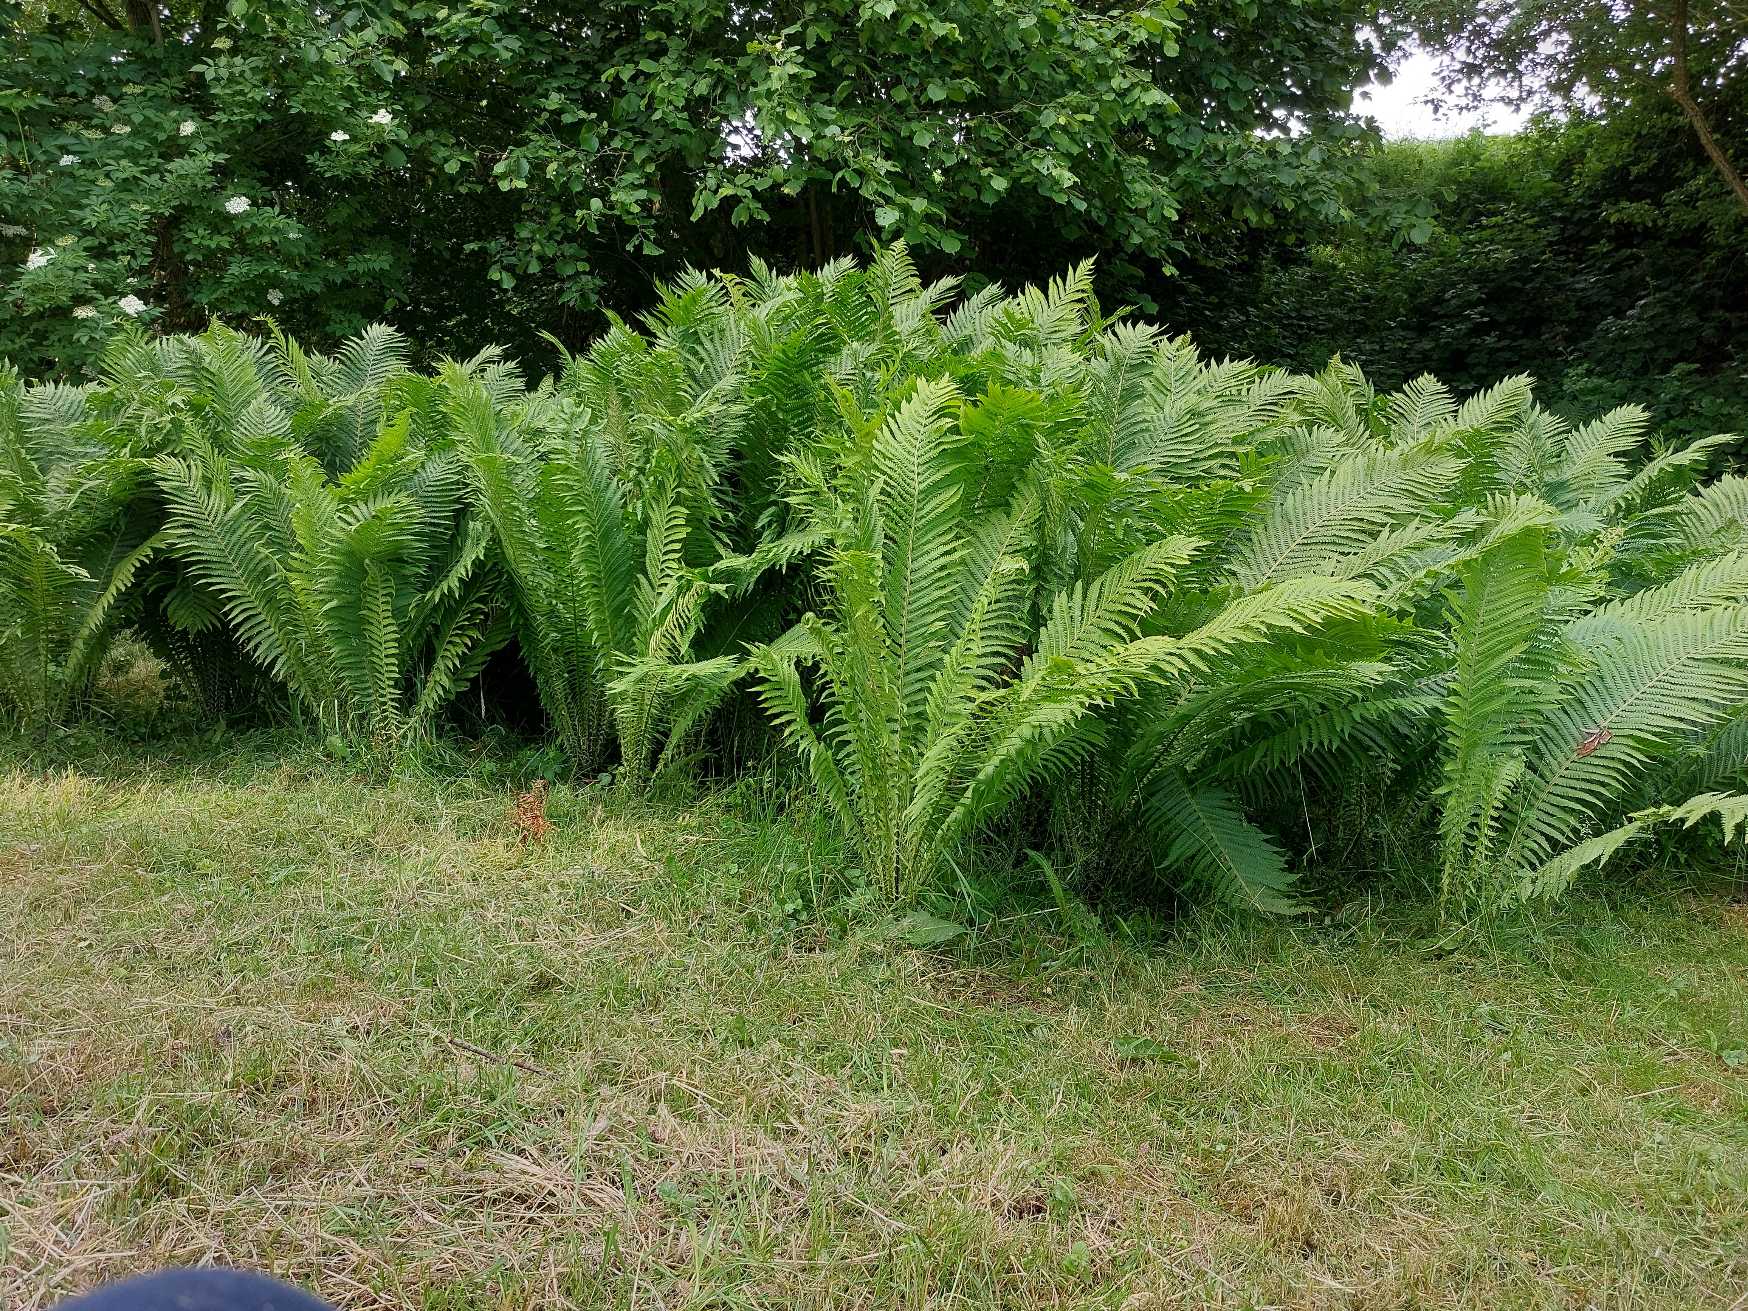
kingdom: Plantae
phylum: Tracheophyta
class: Polypodiopsida
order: Polypodiales
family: Onocleaceae
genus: Matteuccia
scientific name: Matteuccia struthiopteris
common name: Strudsvinge
